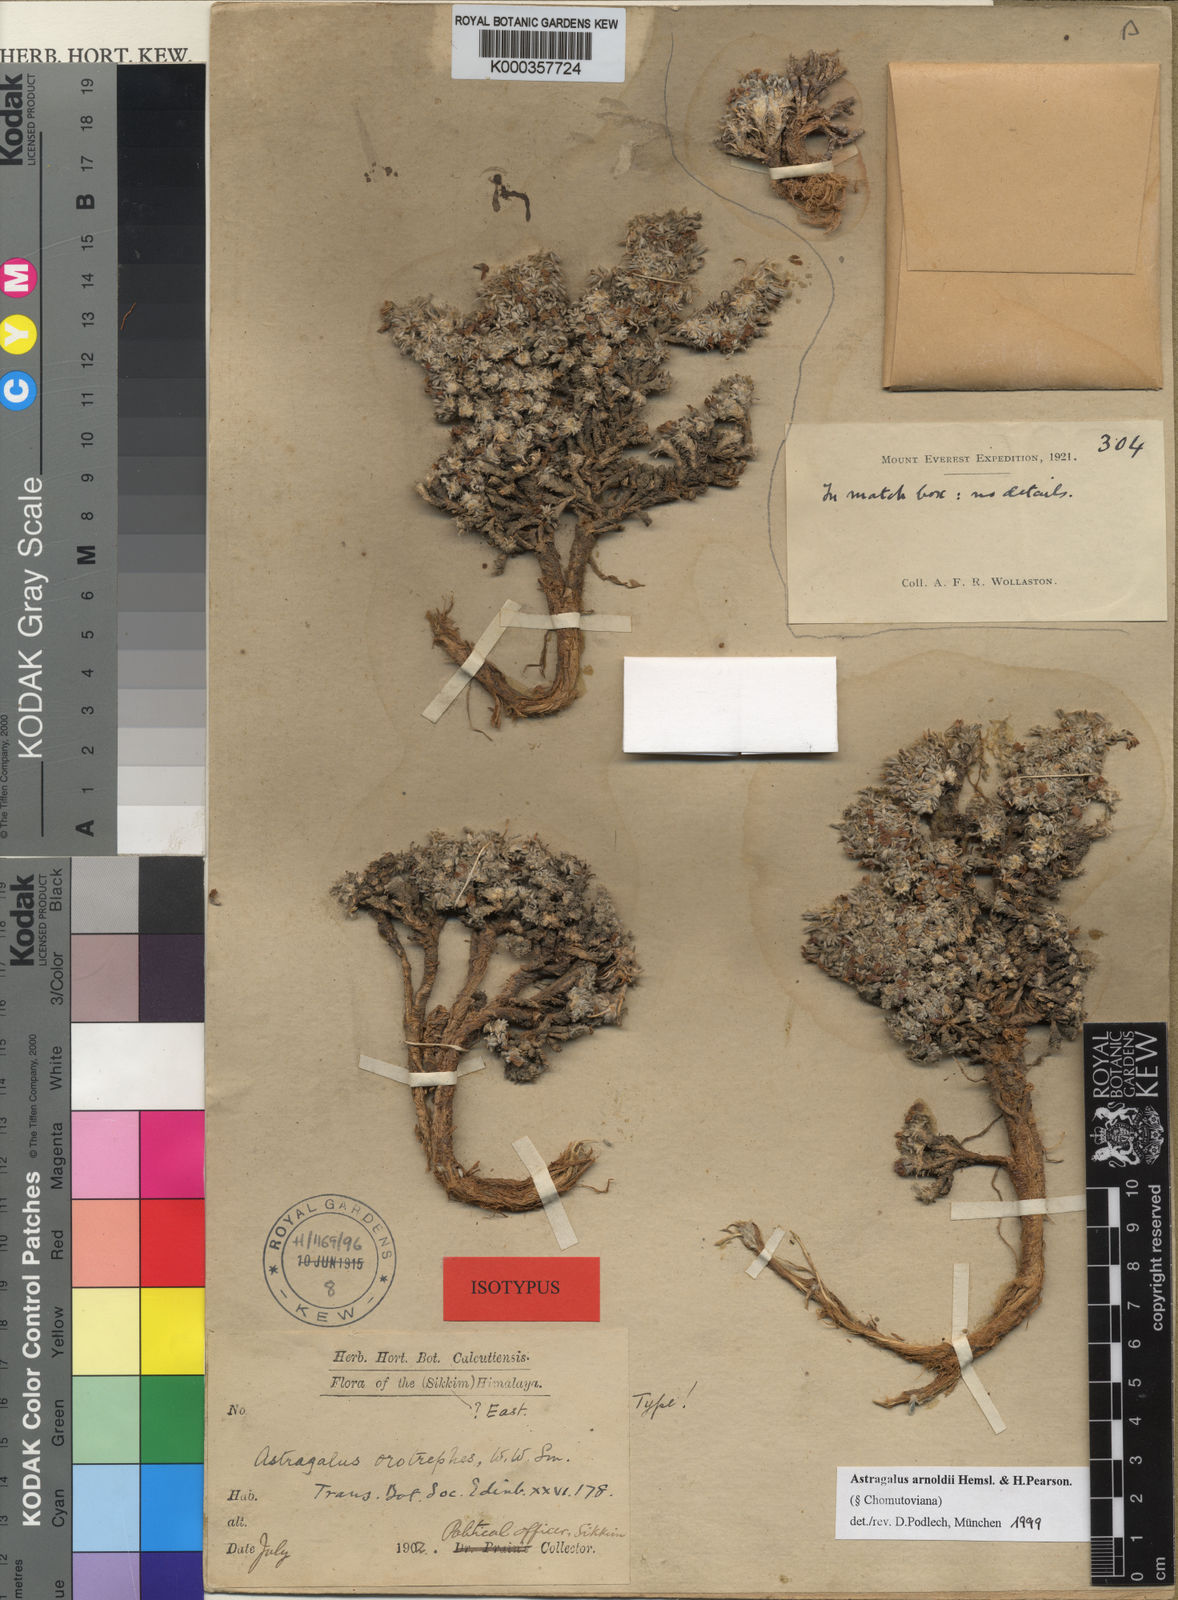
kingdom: Plantae
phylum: Tracheophyta
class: Magnoliopsida
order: Fabales
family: Fabaceae
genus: Astragalus
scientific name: Astragalus
